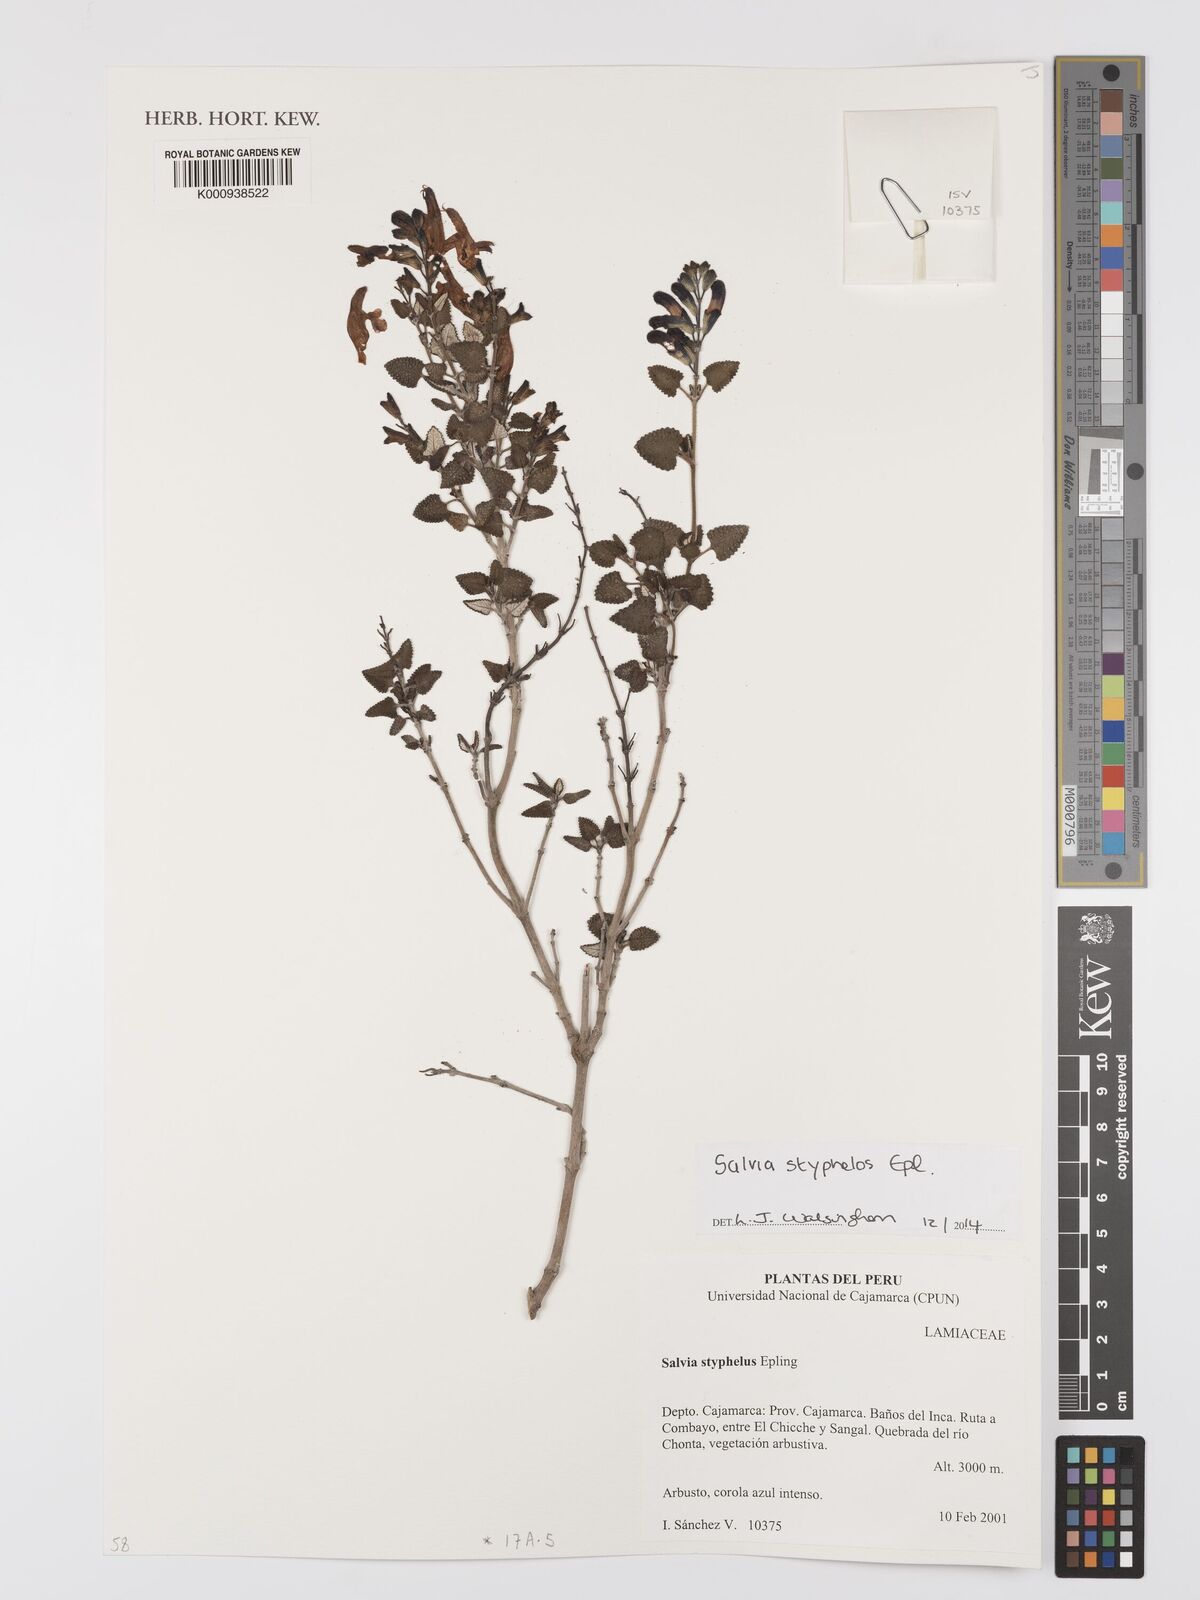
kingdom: Plantae
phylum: Tracheophyta
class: Magnoliopsida
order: Lamiales
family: Lamiaceae
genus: Salvia
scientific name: Salvia styphelos
